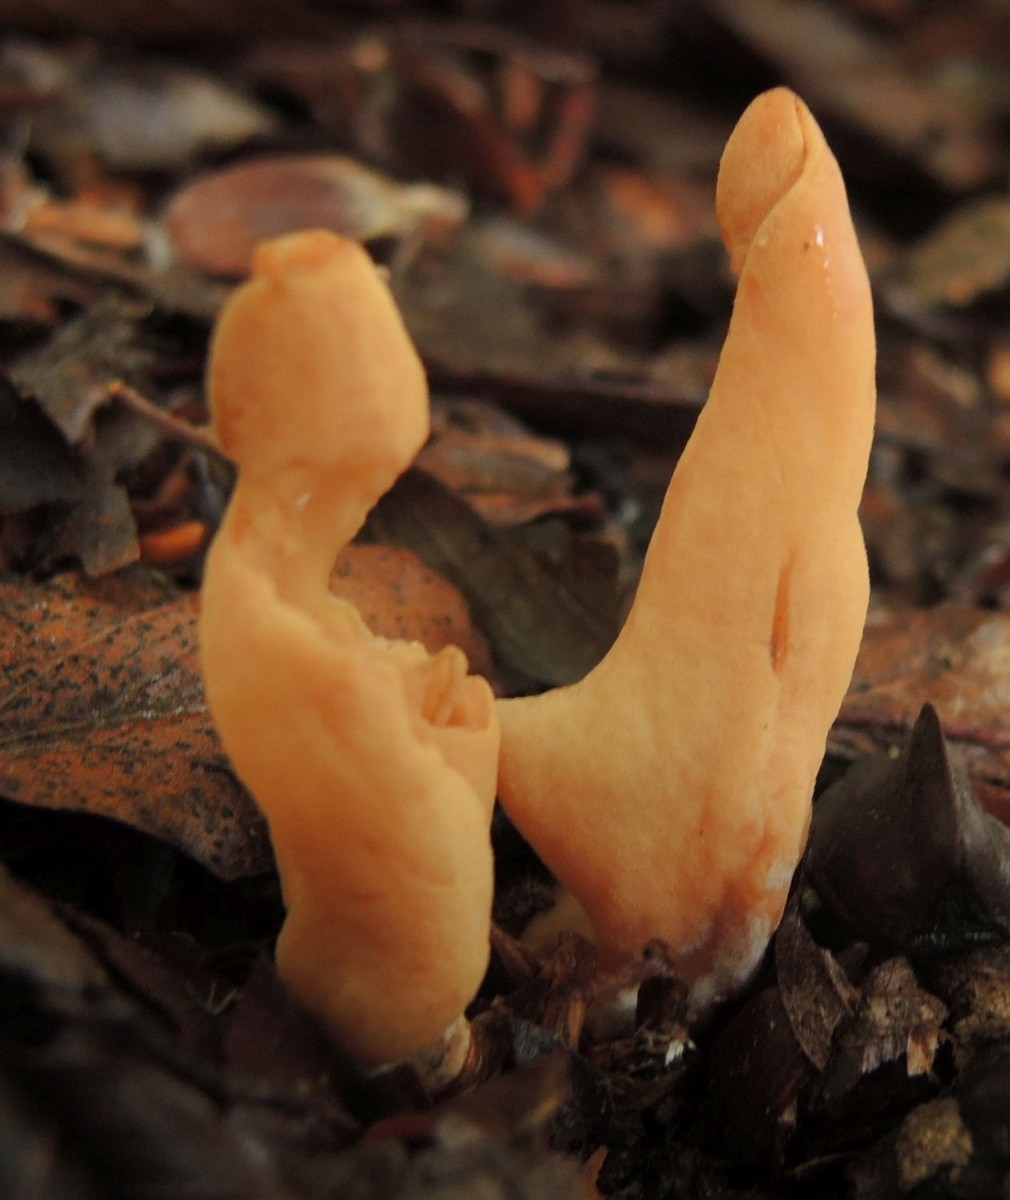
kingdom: Fungi
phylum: Ascomycota
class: Pezizomycetes
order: Pezizales
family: Otideaceae
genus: Otidea
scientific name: Otidea onotica
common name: æsel-ørebæger
